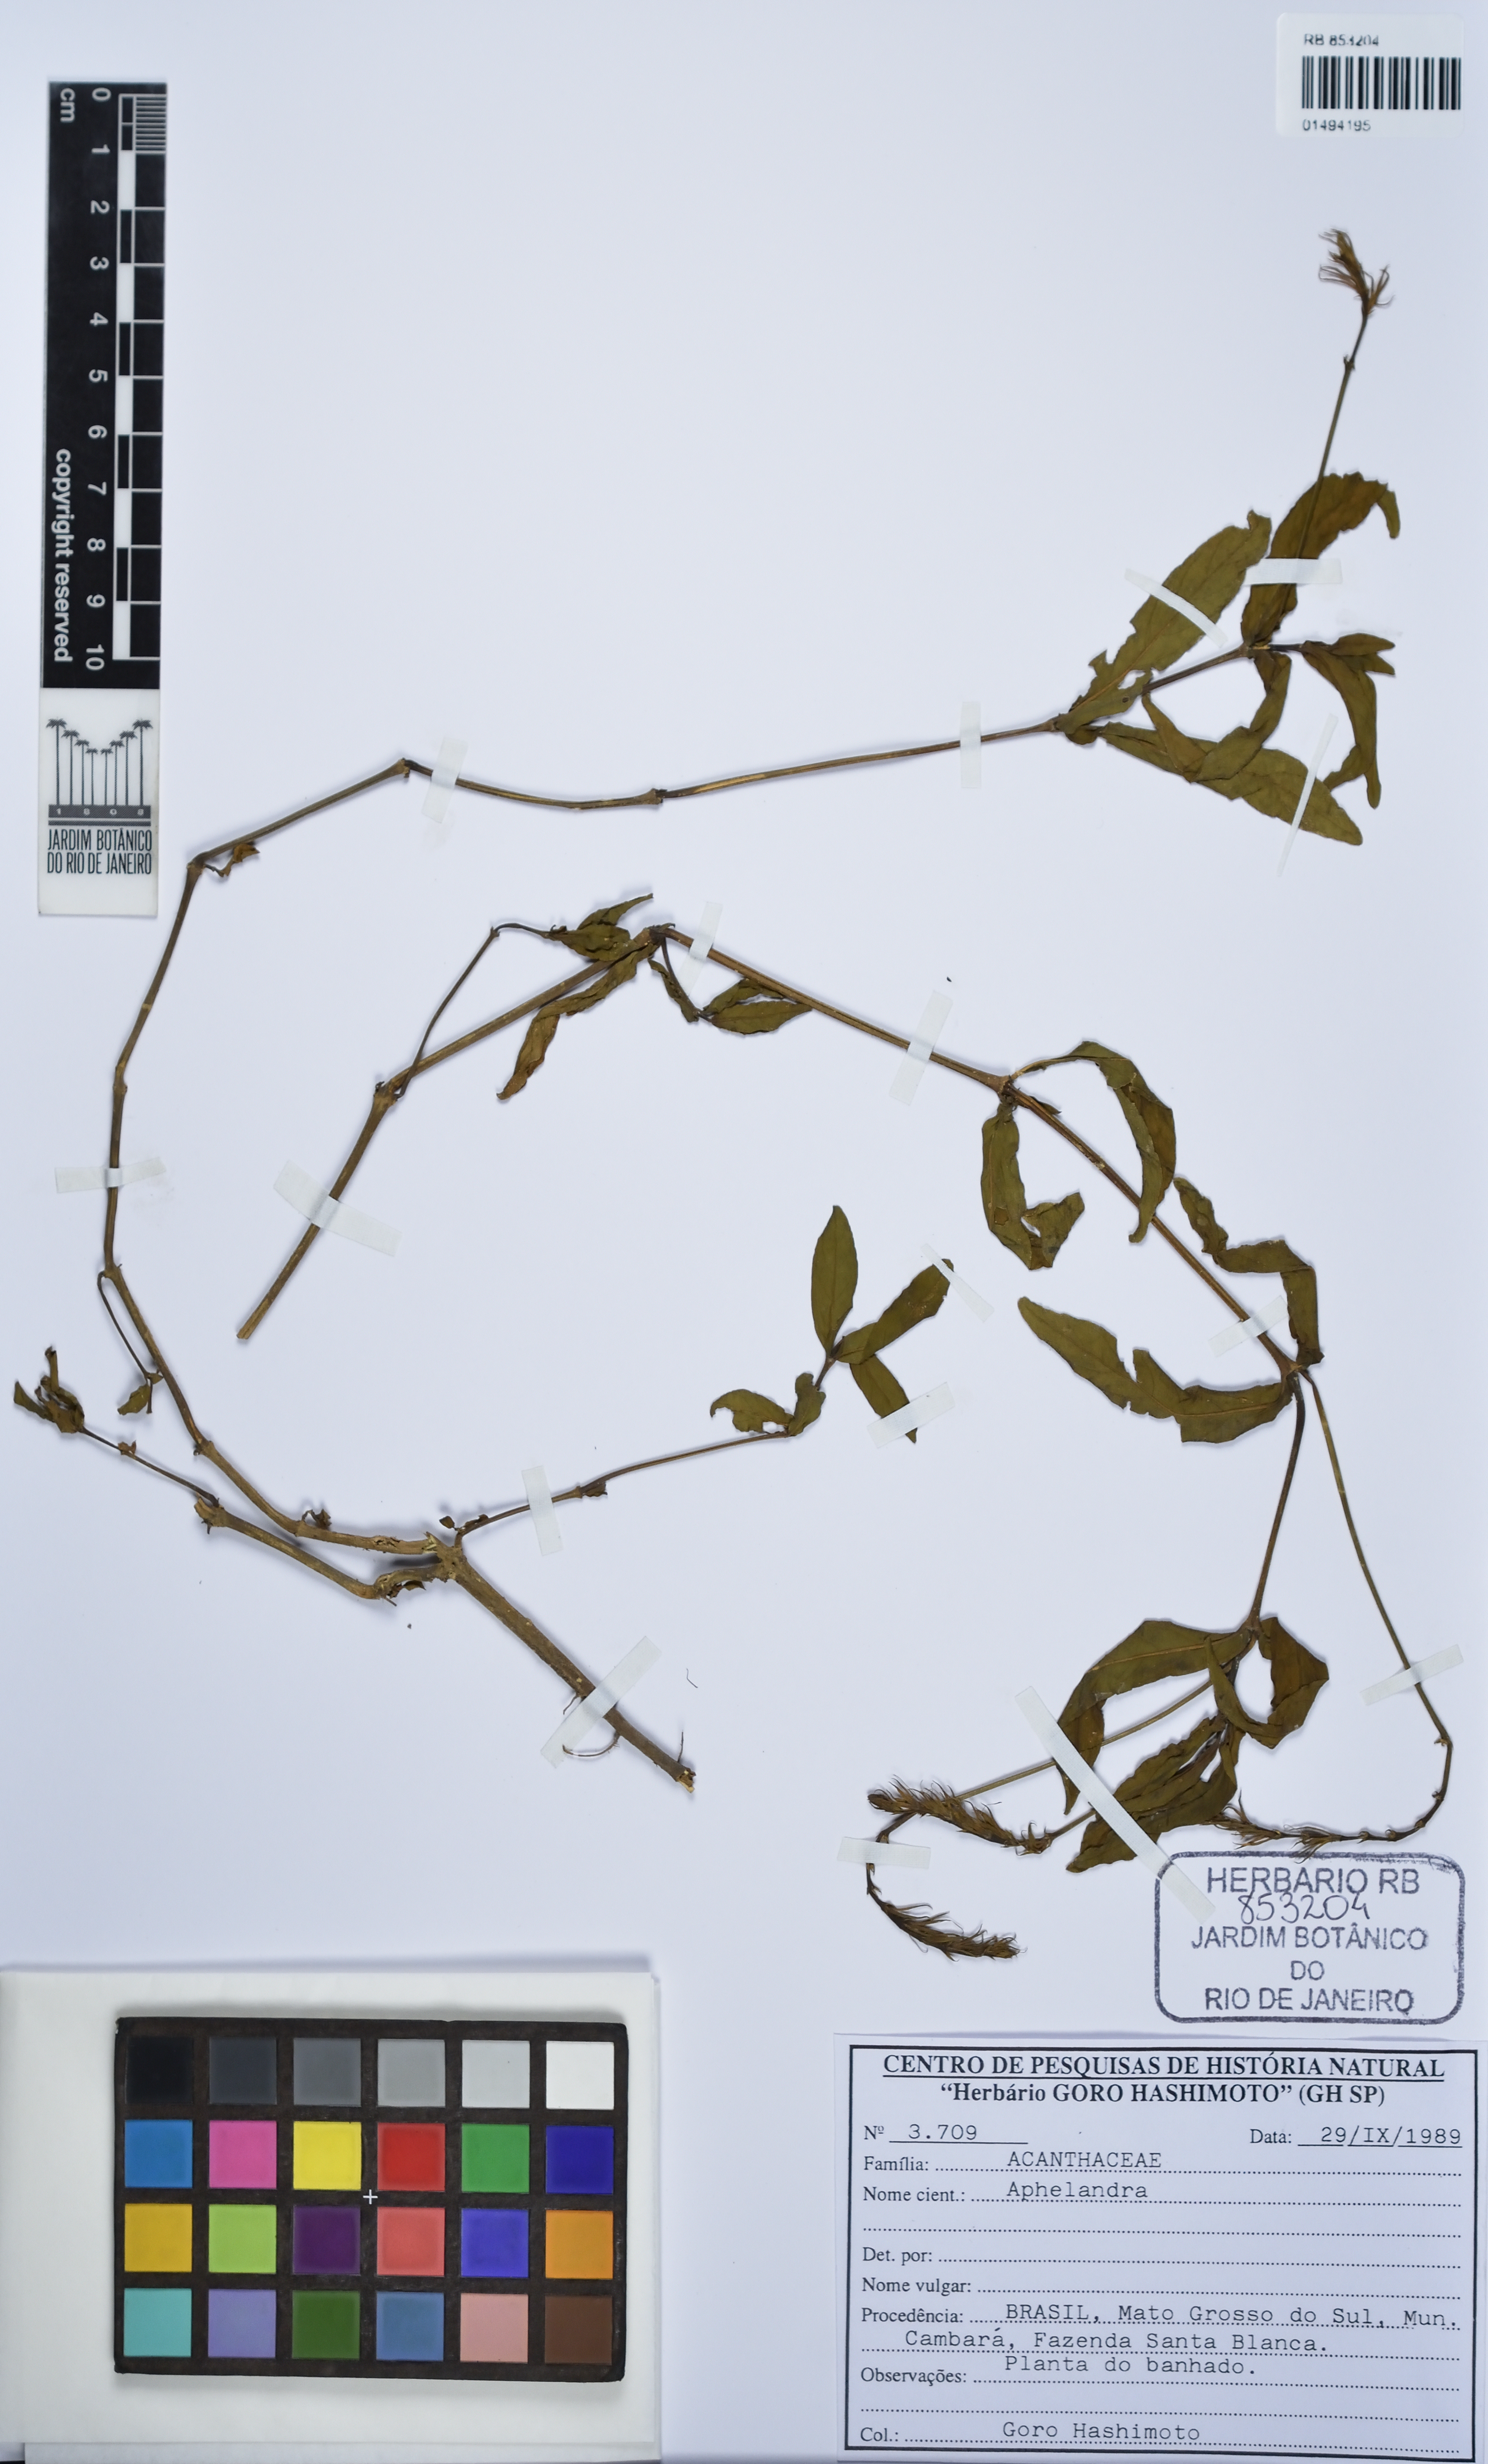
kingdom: Plantae
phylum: Tracheophyta
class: Magnoliopsida
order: Lamiales
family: Acanthaceae
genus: Dianthera
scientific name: Dianthera laevilinguis
